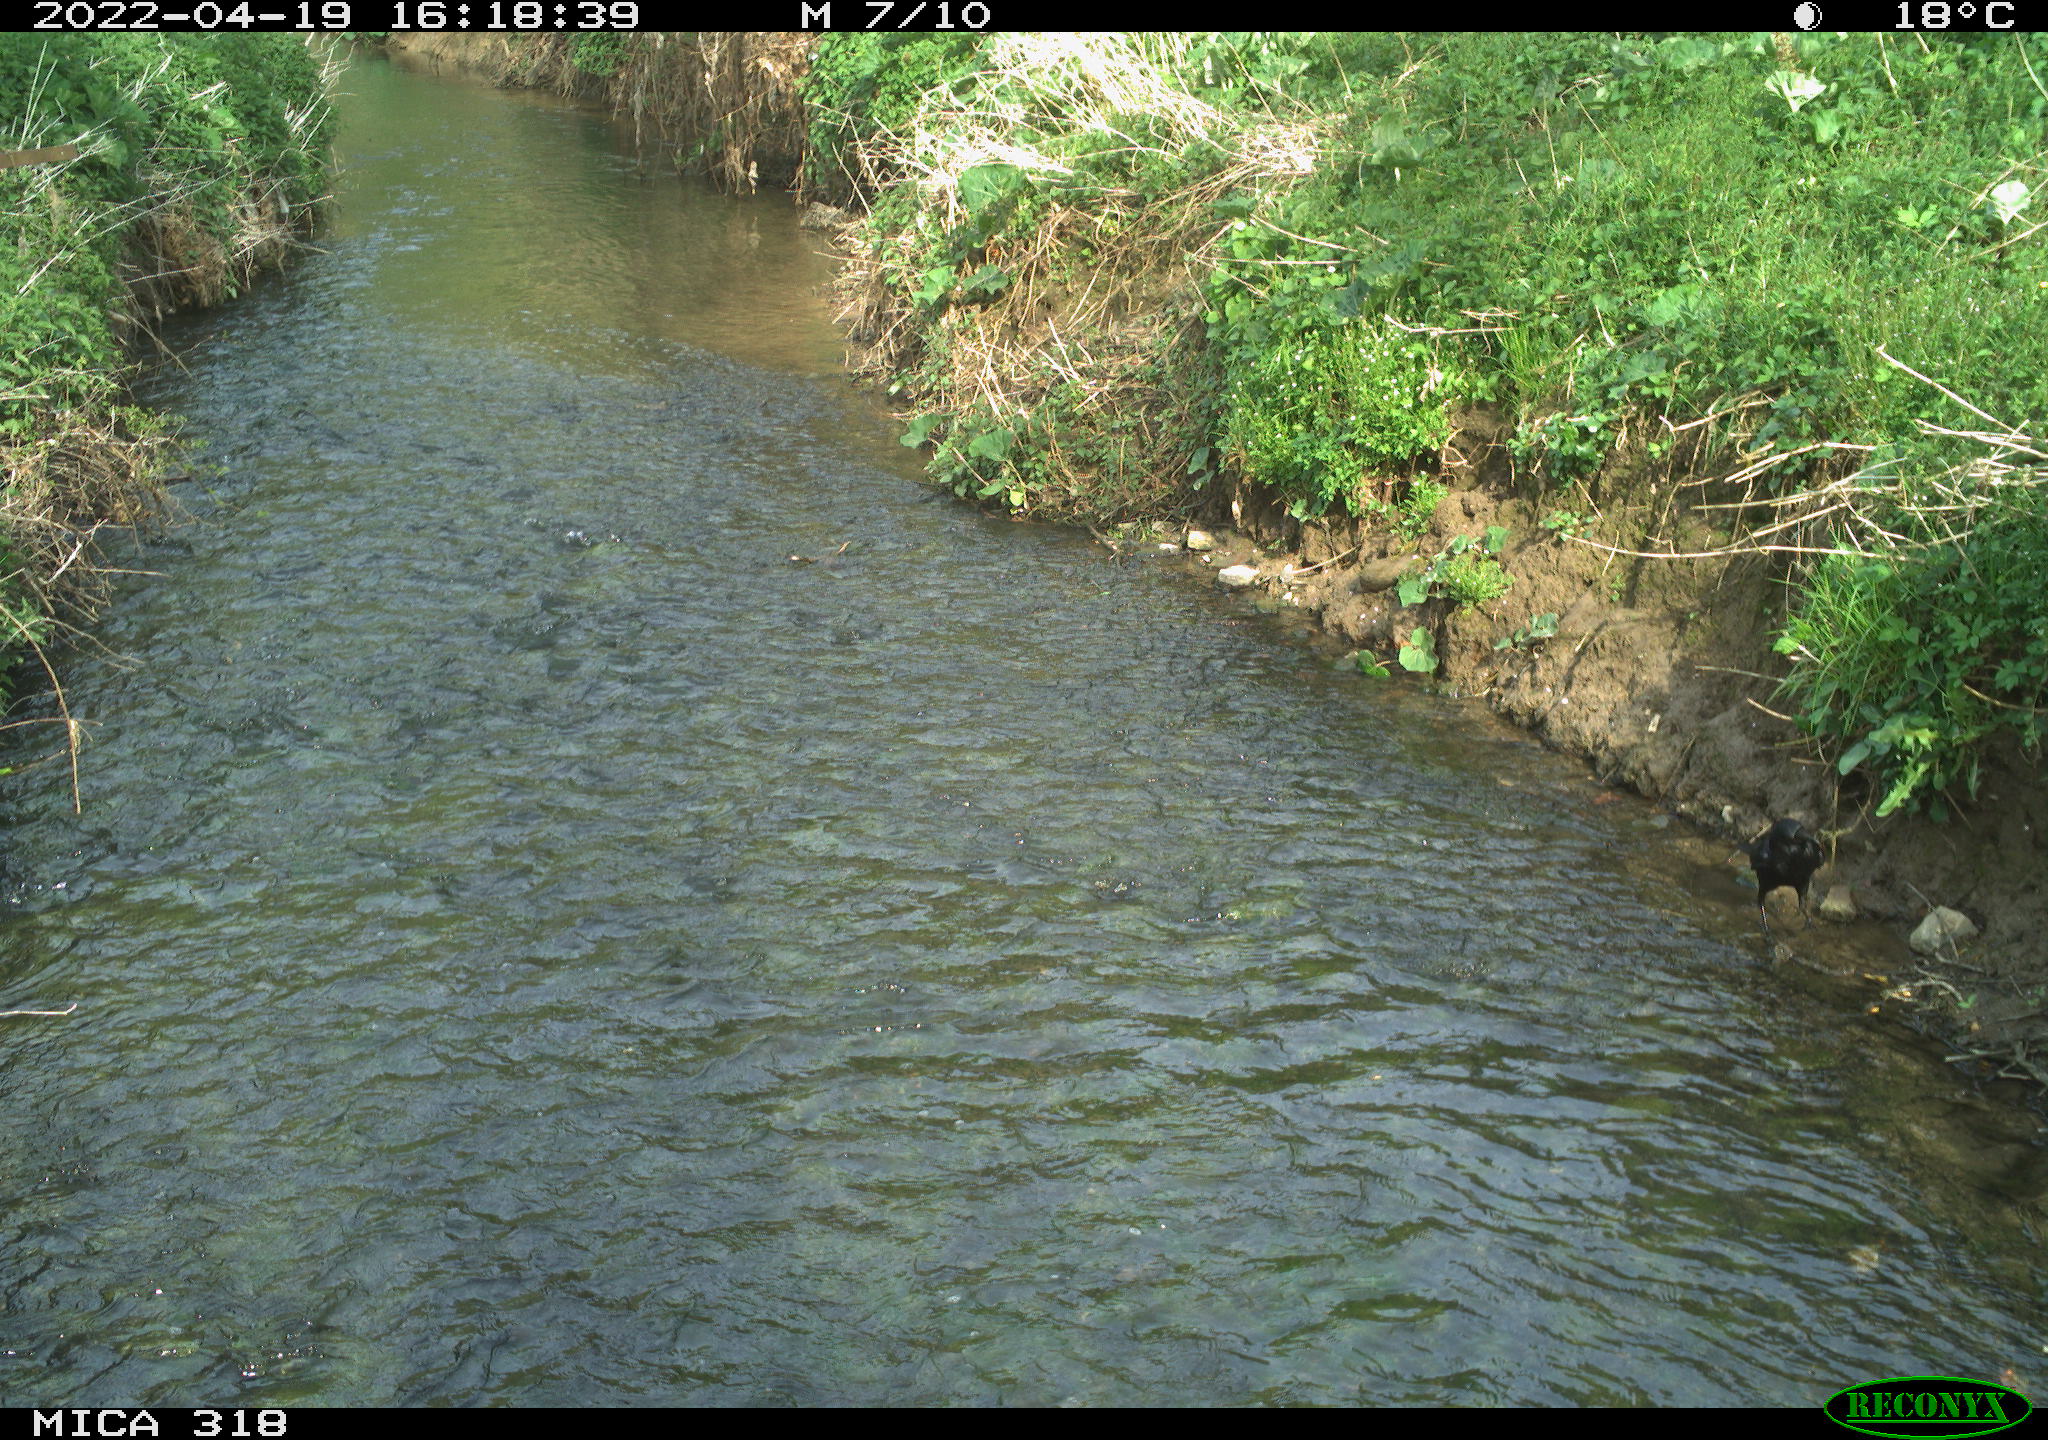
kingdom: Animalia
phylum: Chordata
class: Aves
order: Passeriformes
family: Corvidae
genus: Corvus
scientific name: Corvus corone
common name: Carrion crow
